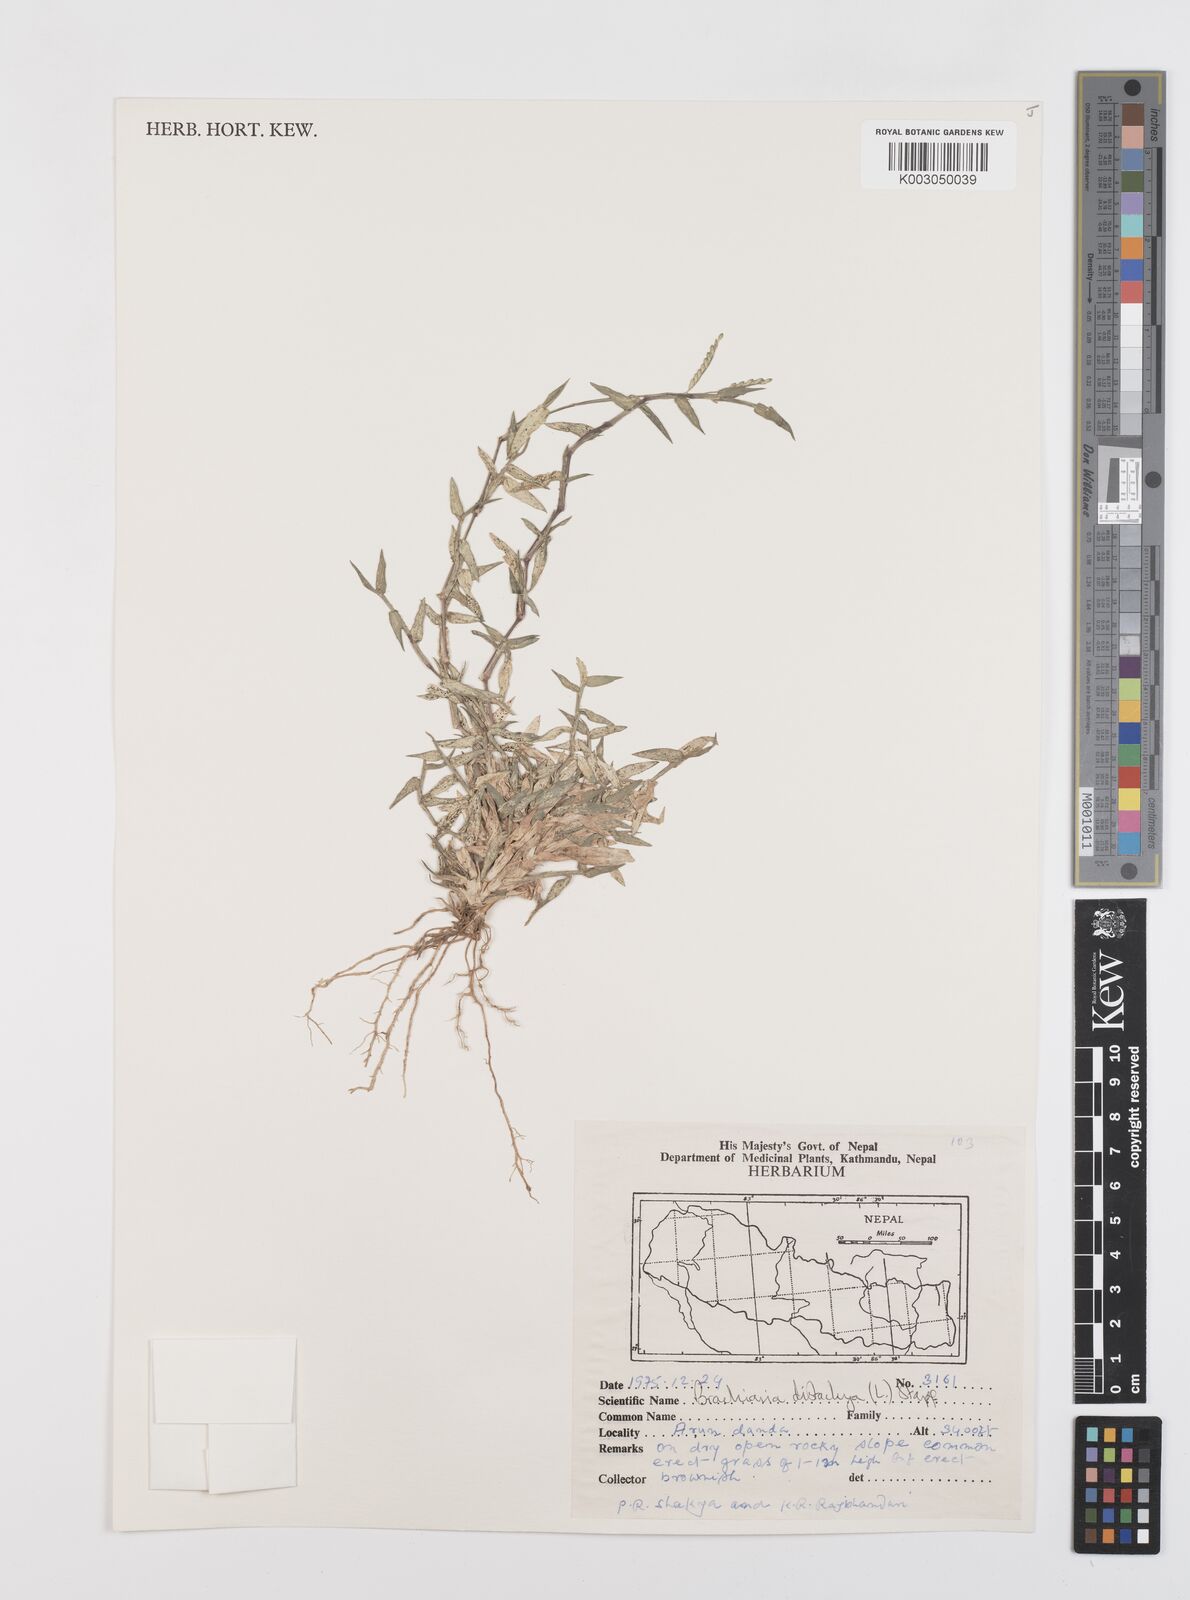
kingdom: Plantae
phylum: Tracheophyta
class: Liliopsida
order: Poales
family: Poaceae
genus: Urochloa
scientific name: Urochloa distachyos
